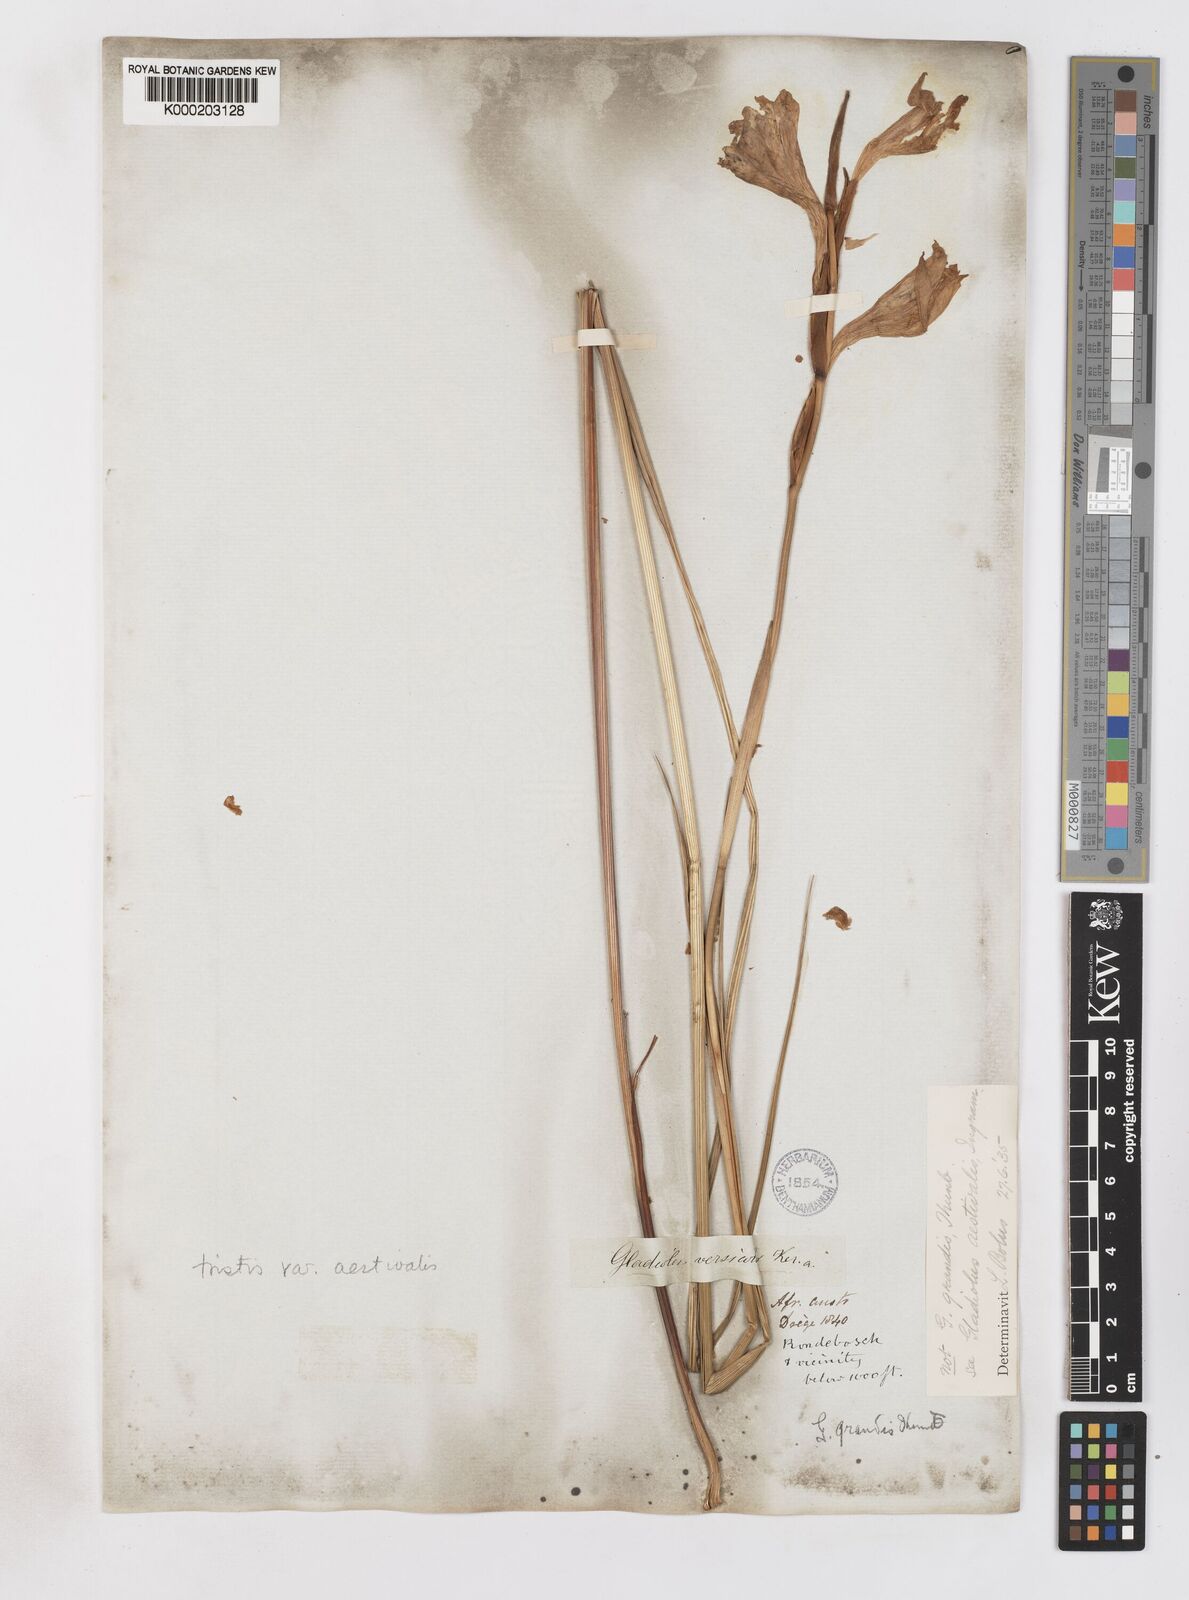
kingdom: Plantae
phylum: Tracheophyta
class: Liliopsida
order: Asparagales
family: Iridaceae
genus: Gladiolus
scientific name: Gladiolus tristis
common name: Ever-flowering gladiolus
